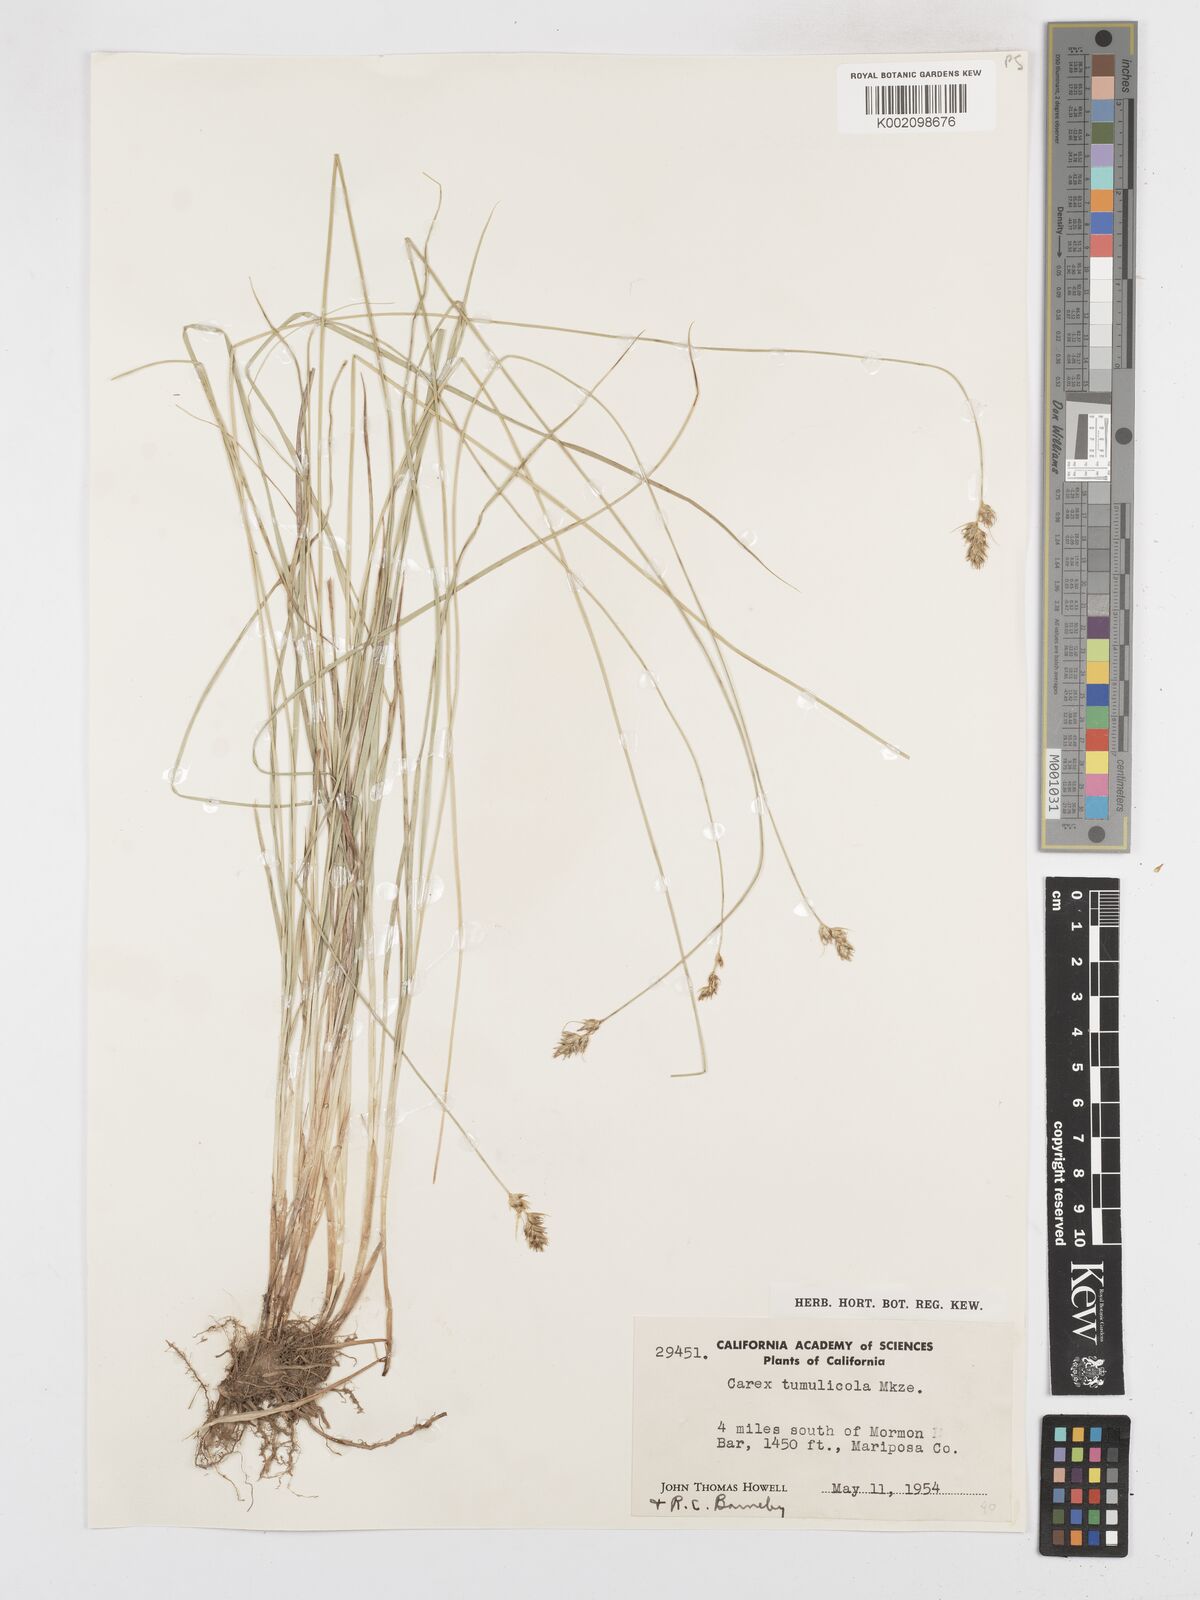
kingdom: Plantae
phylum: Tracheophyta
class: Liliopsida
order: Poales
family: Cyperaceae
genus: Carex
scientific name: Carex tumulicola
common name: Splitawn sedge
